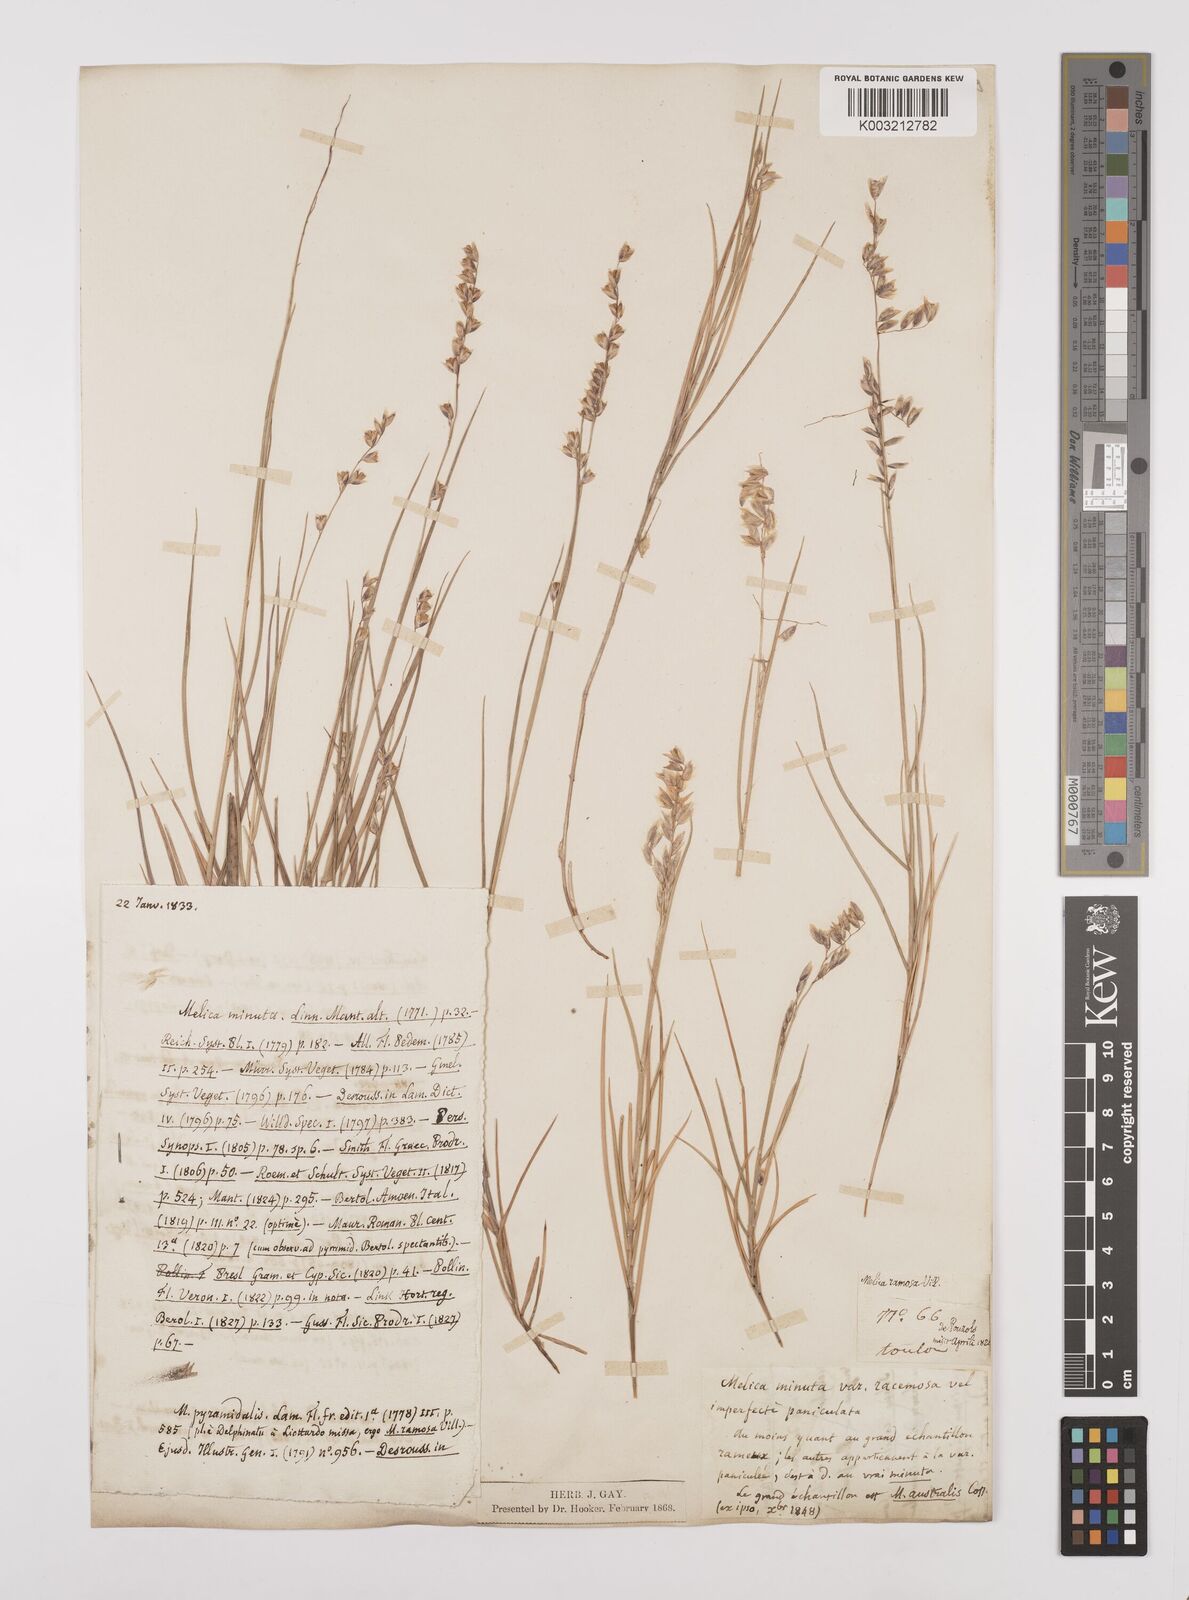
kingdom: Plantae
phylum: Tracheophyta
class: Liliopsida
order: Poales
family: Poaceae
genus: Melica
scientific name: Melica minuta
